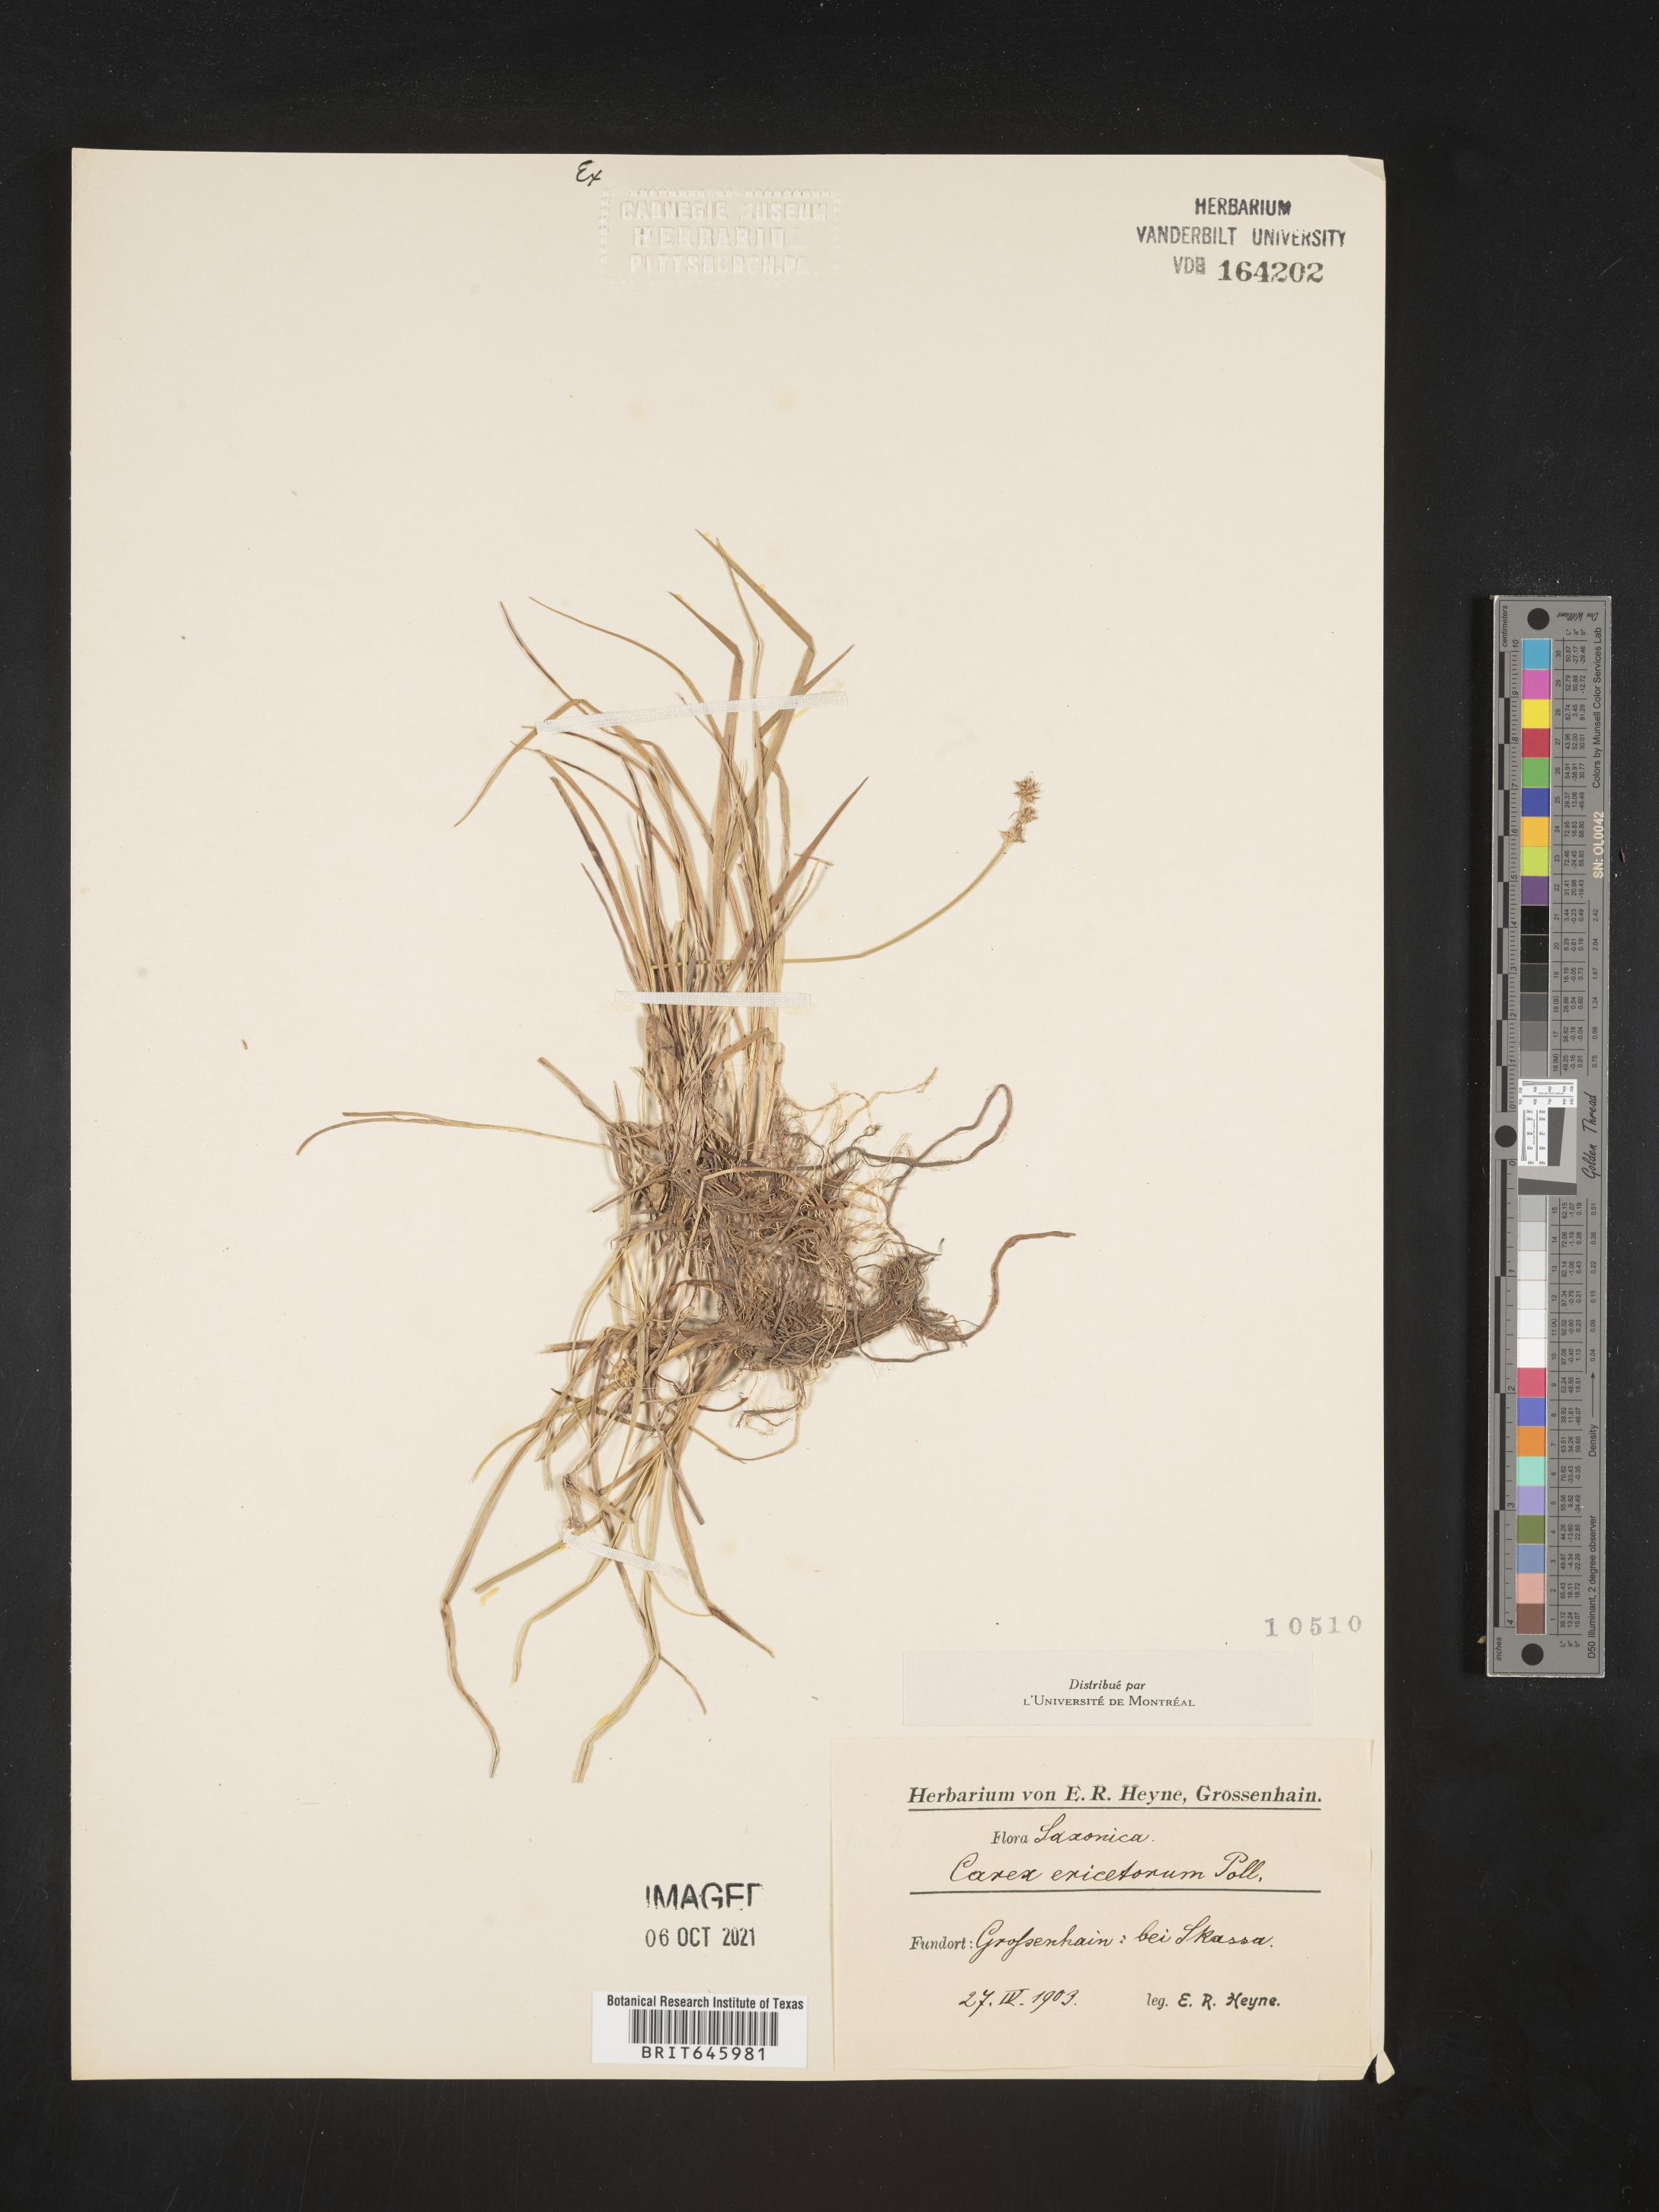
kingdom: Plantae
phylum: Tracheophyta
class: Liliopsida
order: Poales
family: Cyperaceae
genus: Carex
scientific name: Carex ericetorum
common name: Rare spring-sedge
